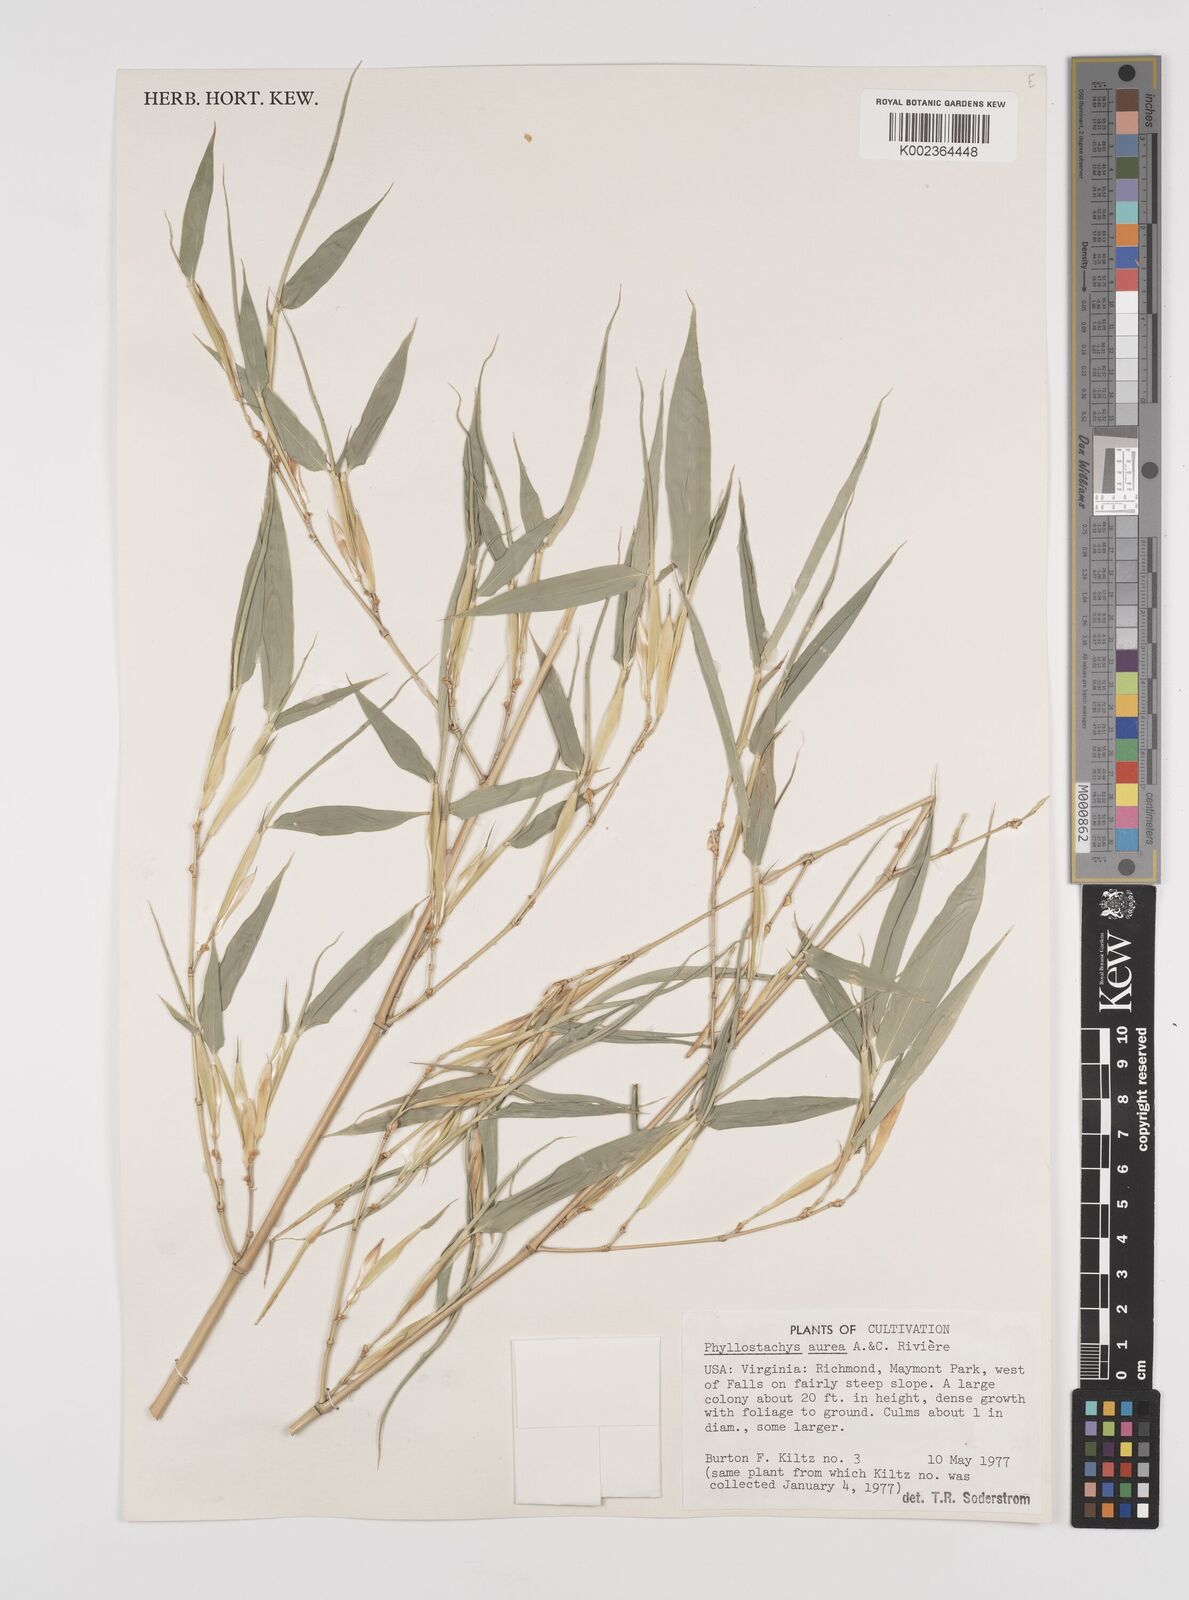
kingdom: Plantae
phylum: Tracheophyta
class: Liliopsida
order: Poales
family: Poaceae
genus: Phyllostachys
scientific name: Phyllostachys aurea
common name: Golden bamboo
